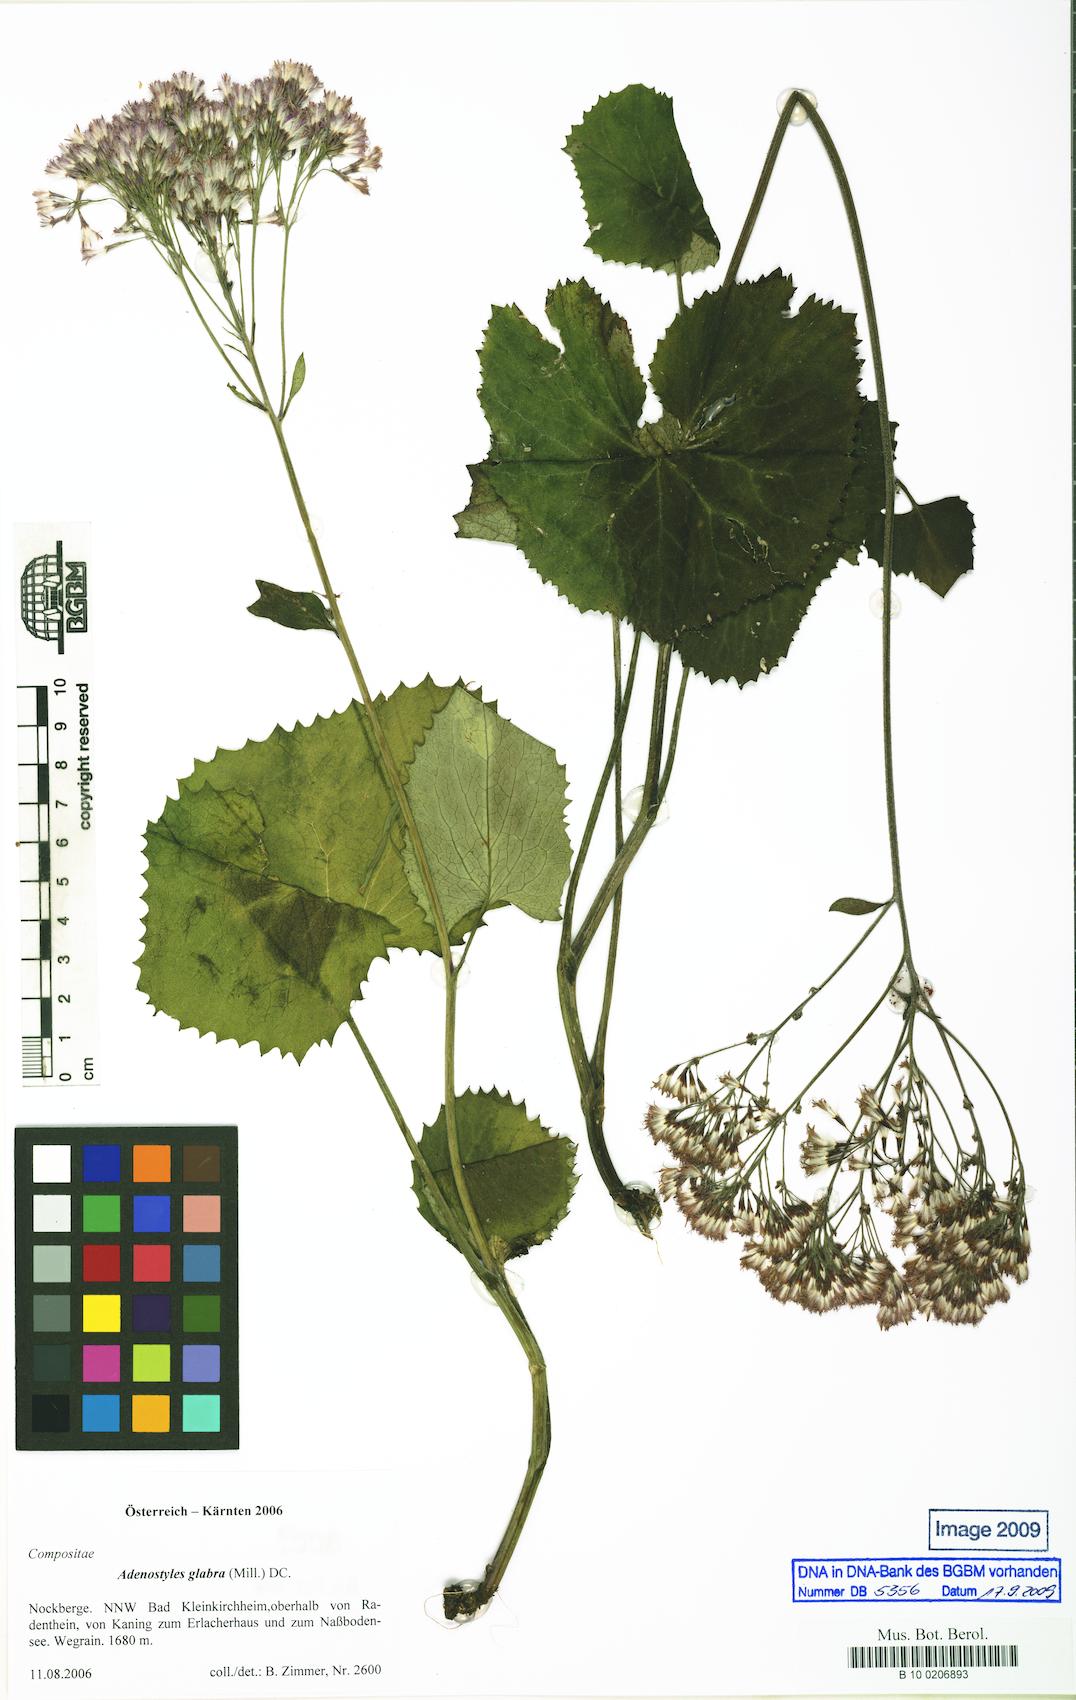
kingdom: Plantae
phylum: Tracheophyta
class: Magnoliopsida
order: Asterales
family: Asteraceae
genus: Adenostyles
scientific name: Adenostyles alpina
